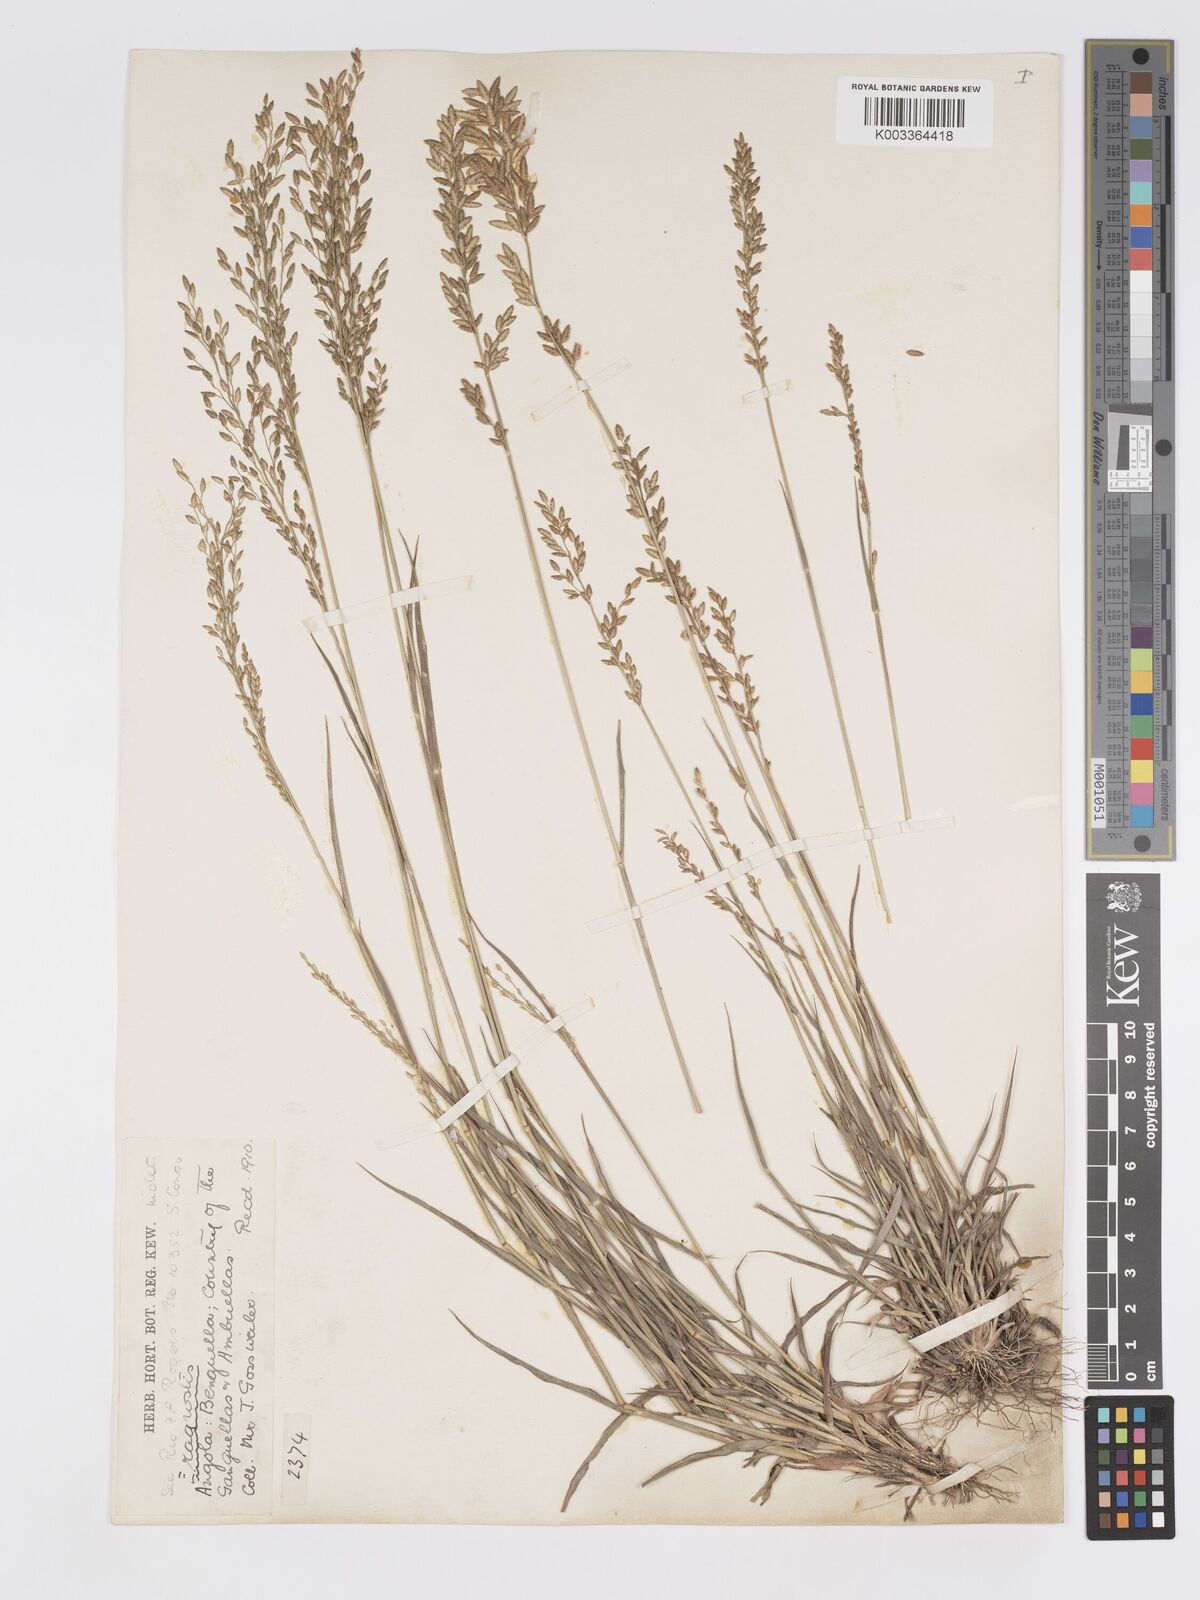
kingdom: Plantae
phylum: Tracheophyta
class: Liliopsida
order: Poales
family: Poaceae
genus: Eragrostis
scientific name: Eragrostis racemosa
